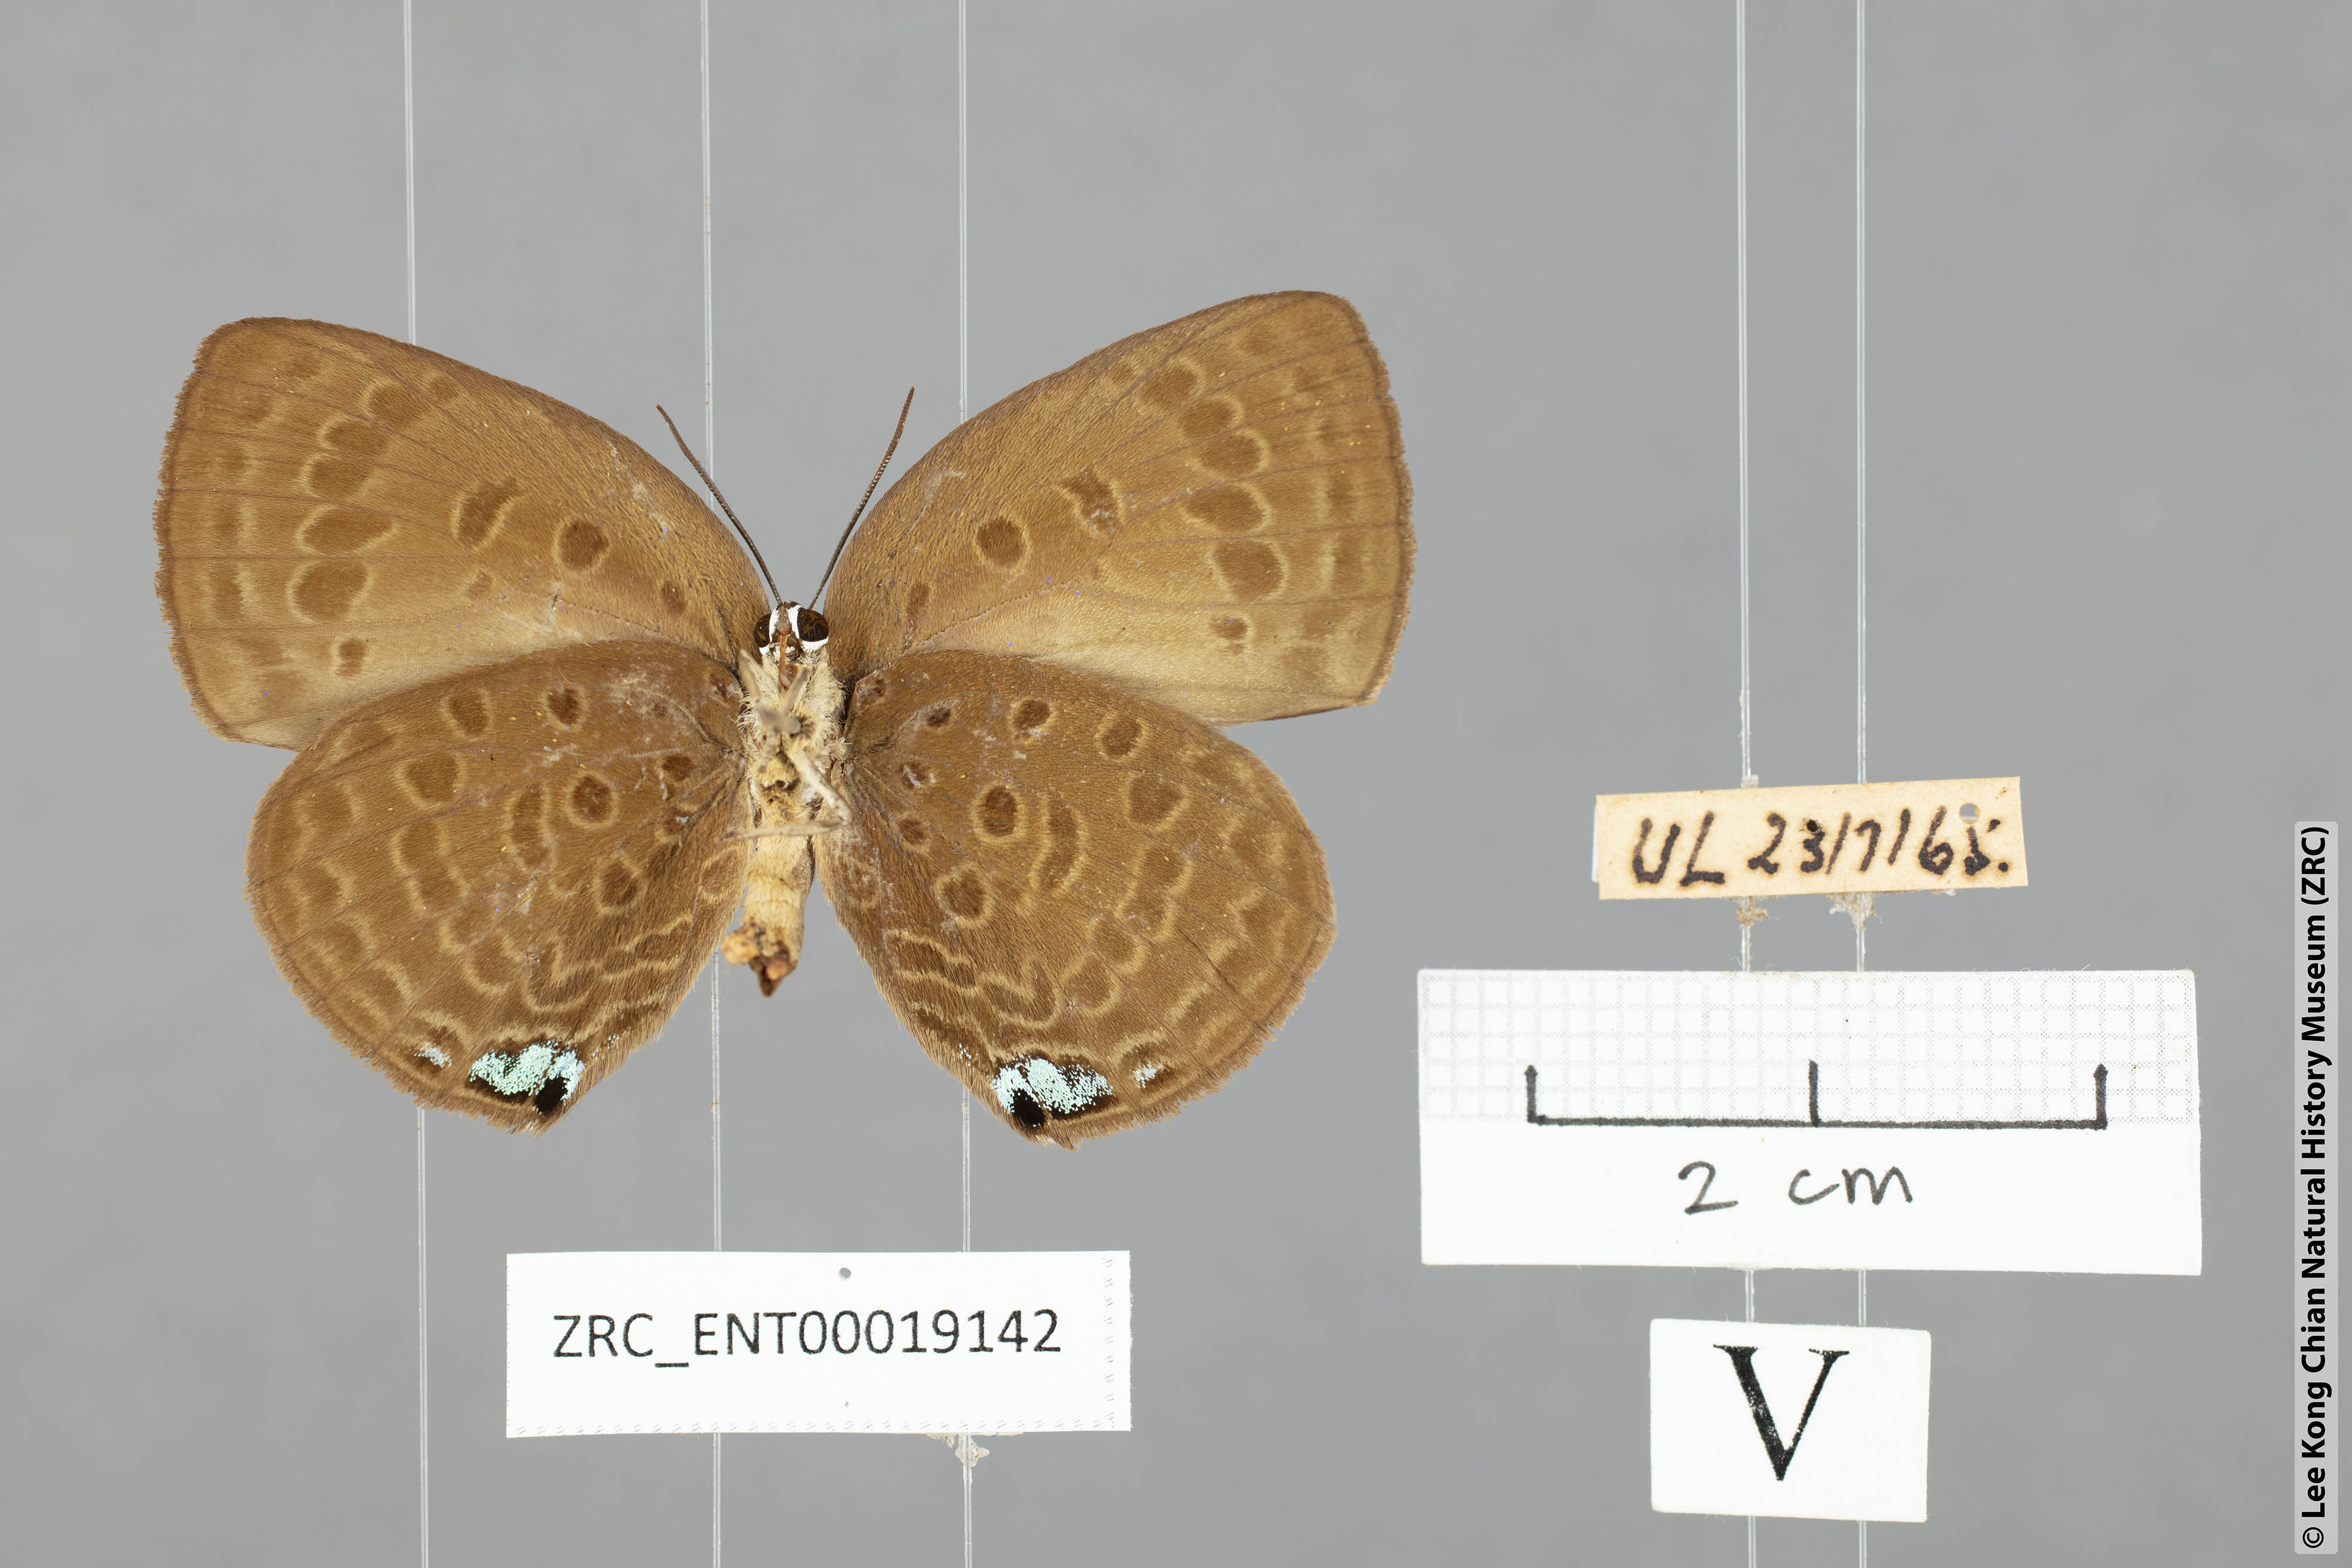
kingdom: Animalia
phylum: Arthropoda
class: Insecta
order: Lepidoptera
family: Lycaenidae
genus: Arhopala
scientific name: Arhopala amphimuta
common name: Broad yellow oakblue
